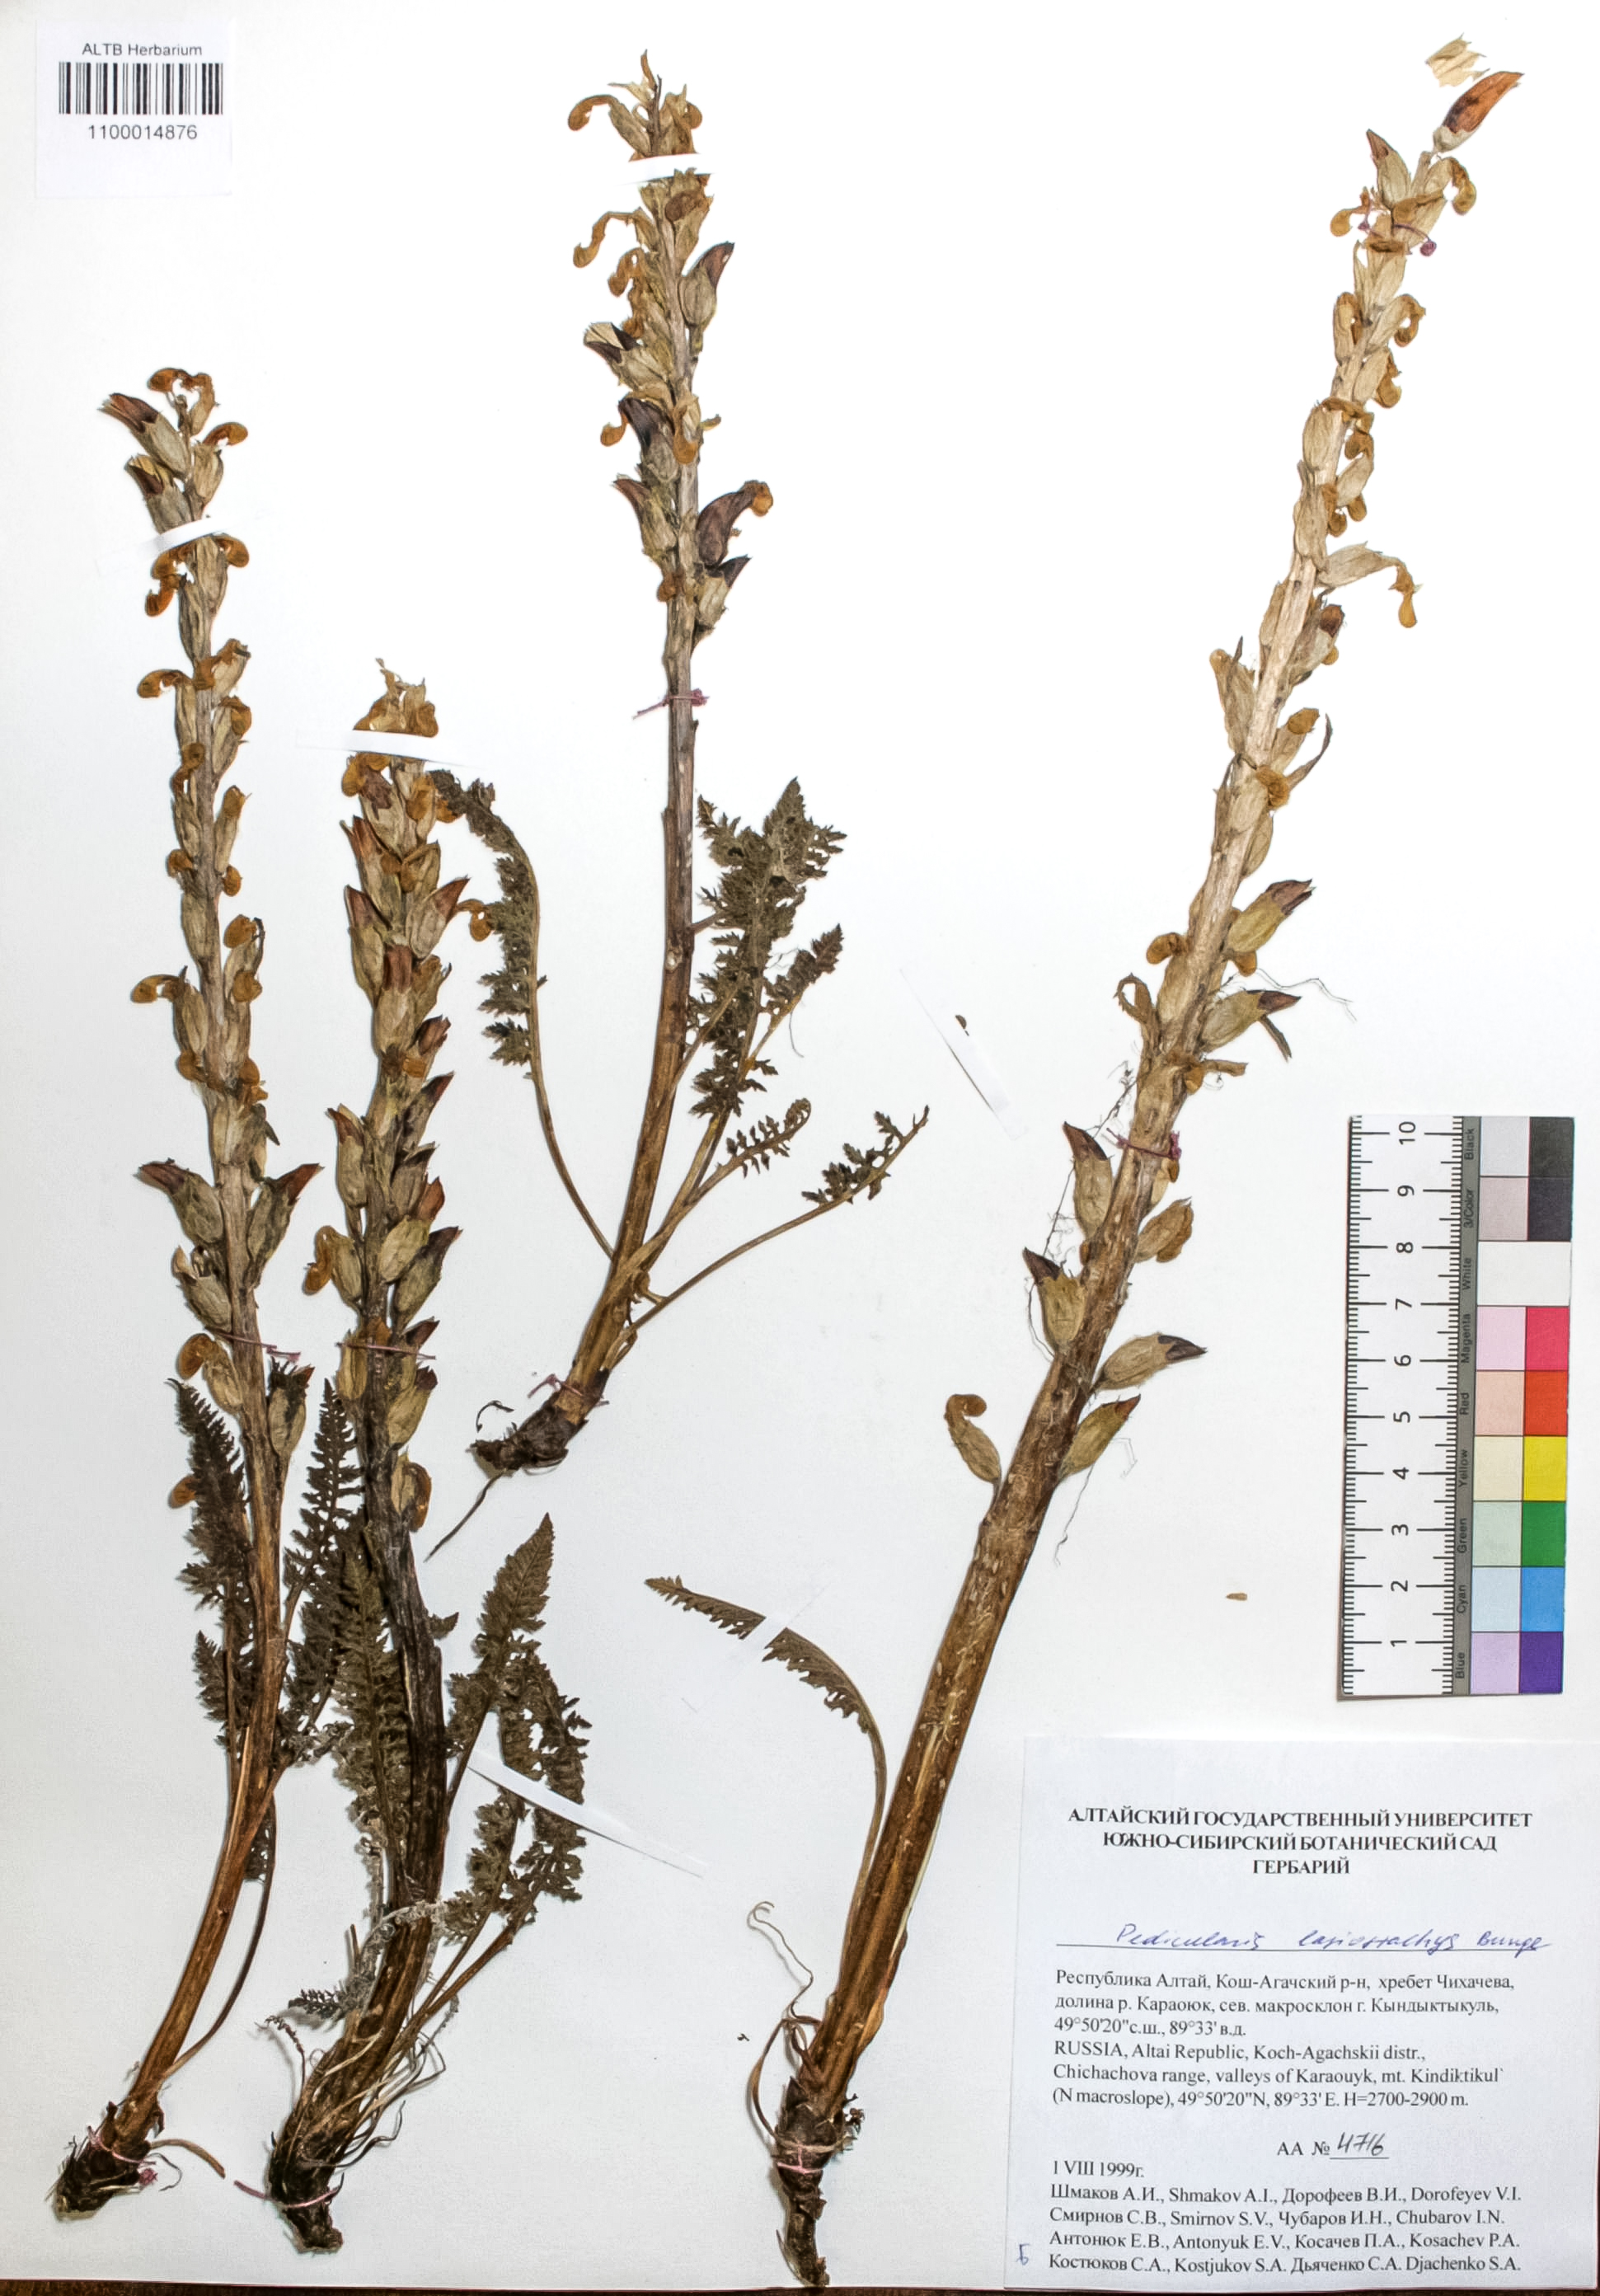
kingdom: Plantae
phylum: Tracheophyta
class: Magnoliopsida
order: Lamiales
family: Orobanchaceae
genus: Pedicularis
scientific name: Pedicularis lasiostachys
